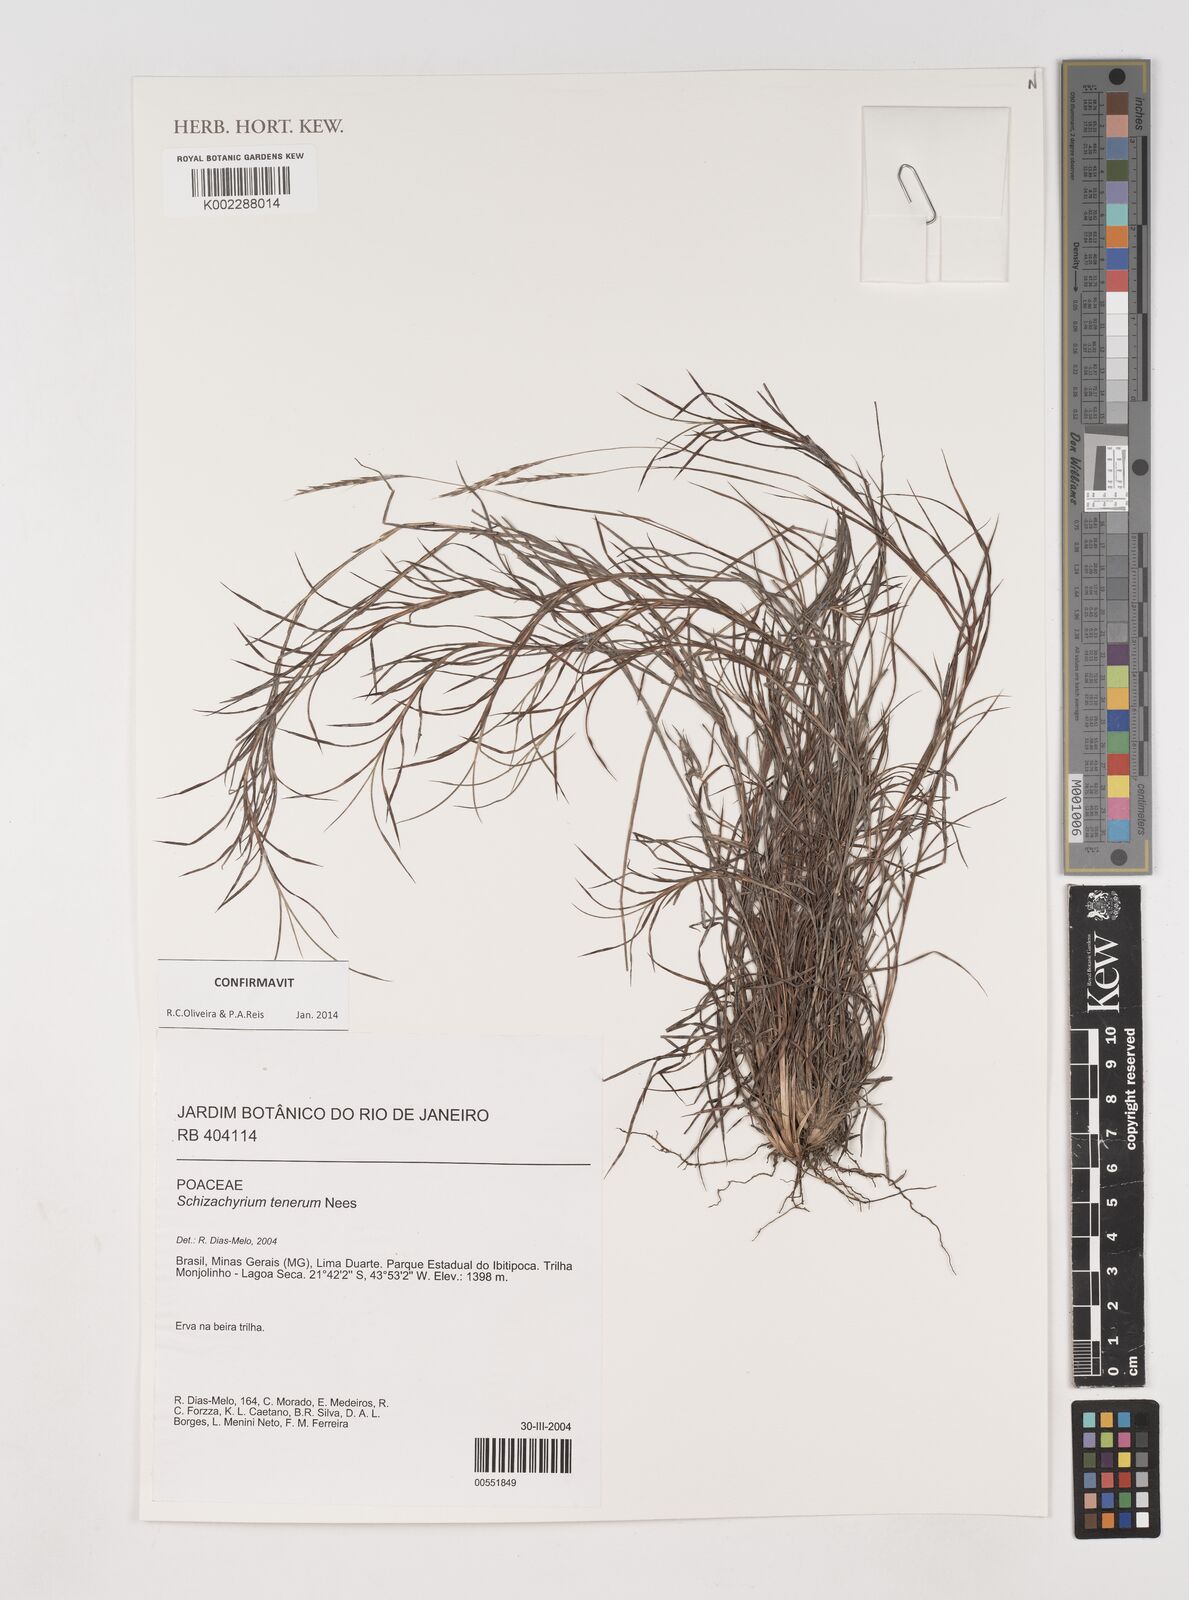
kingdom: Plantae
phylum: Tracheophyta
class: Liliopsida
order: Poales
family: Poaceae
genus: Andropogon
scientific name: Andropogon tener
